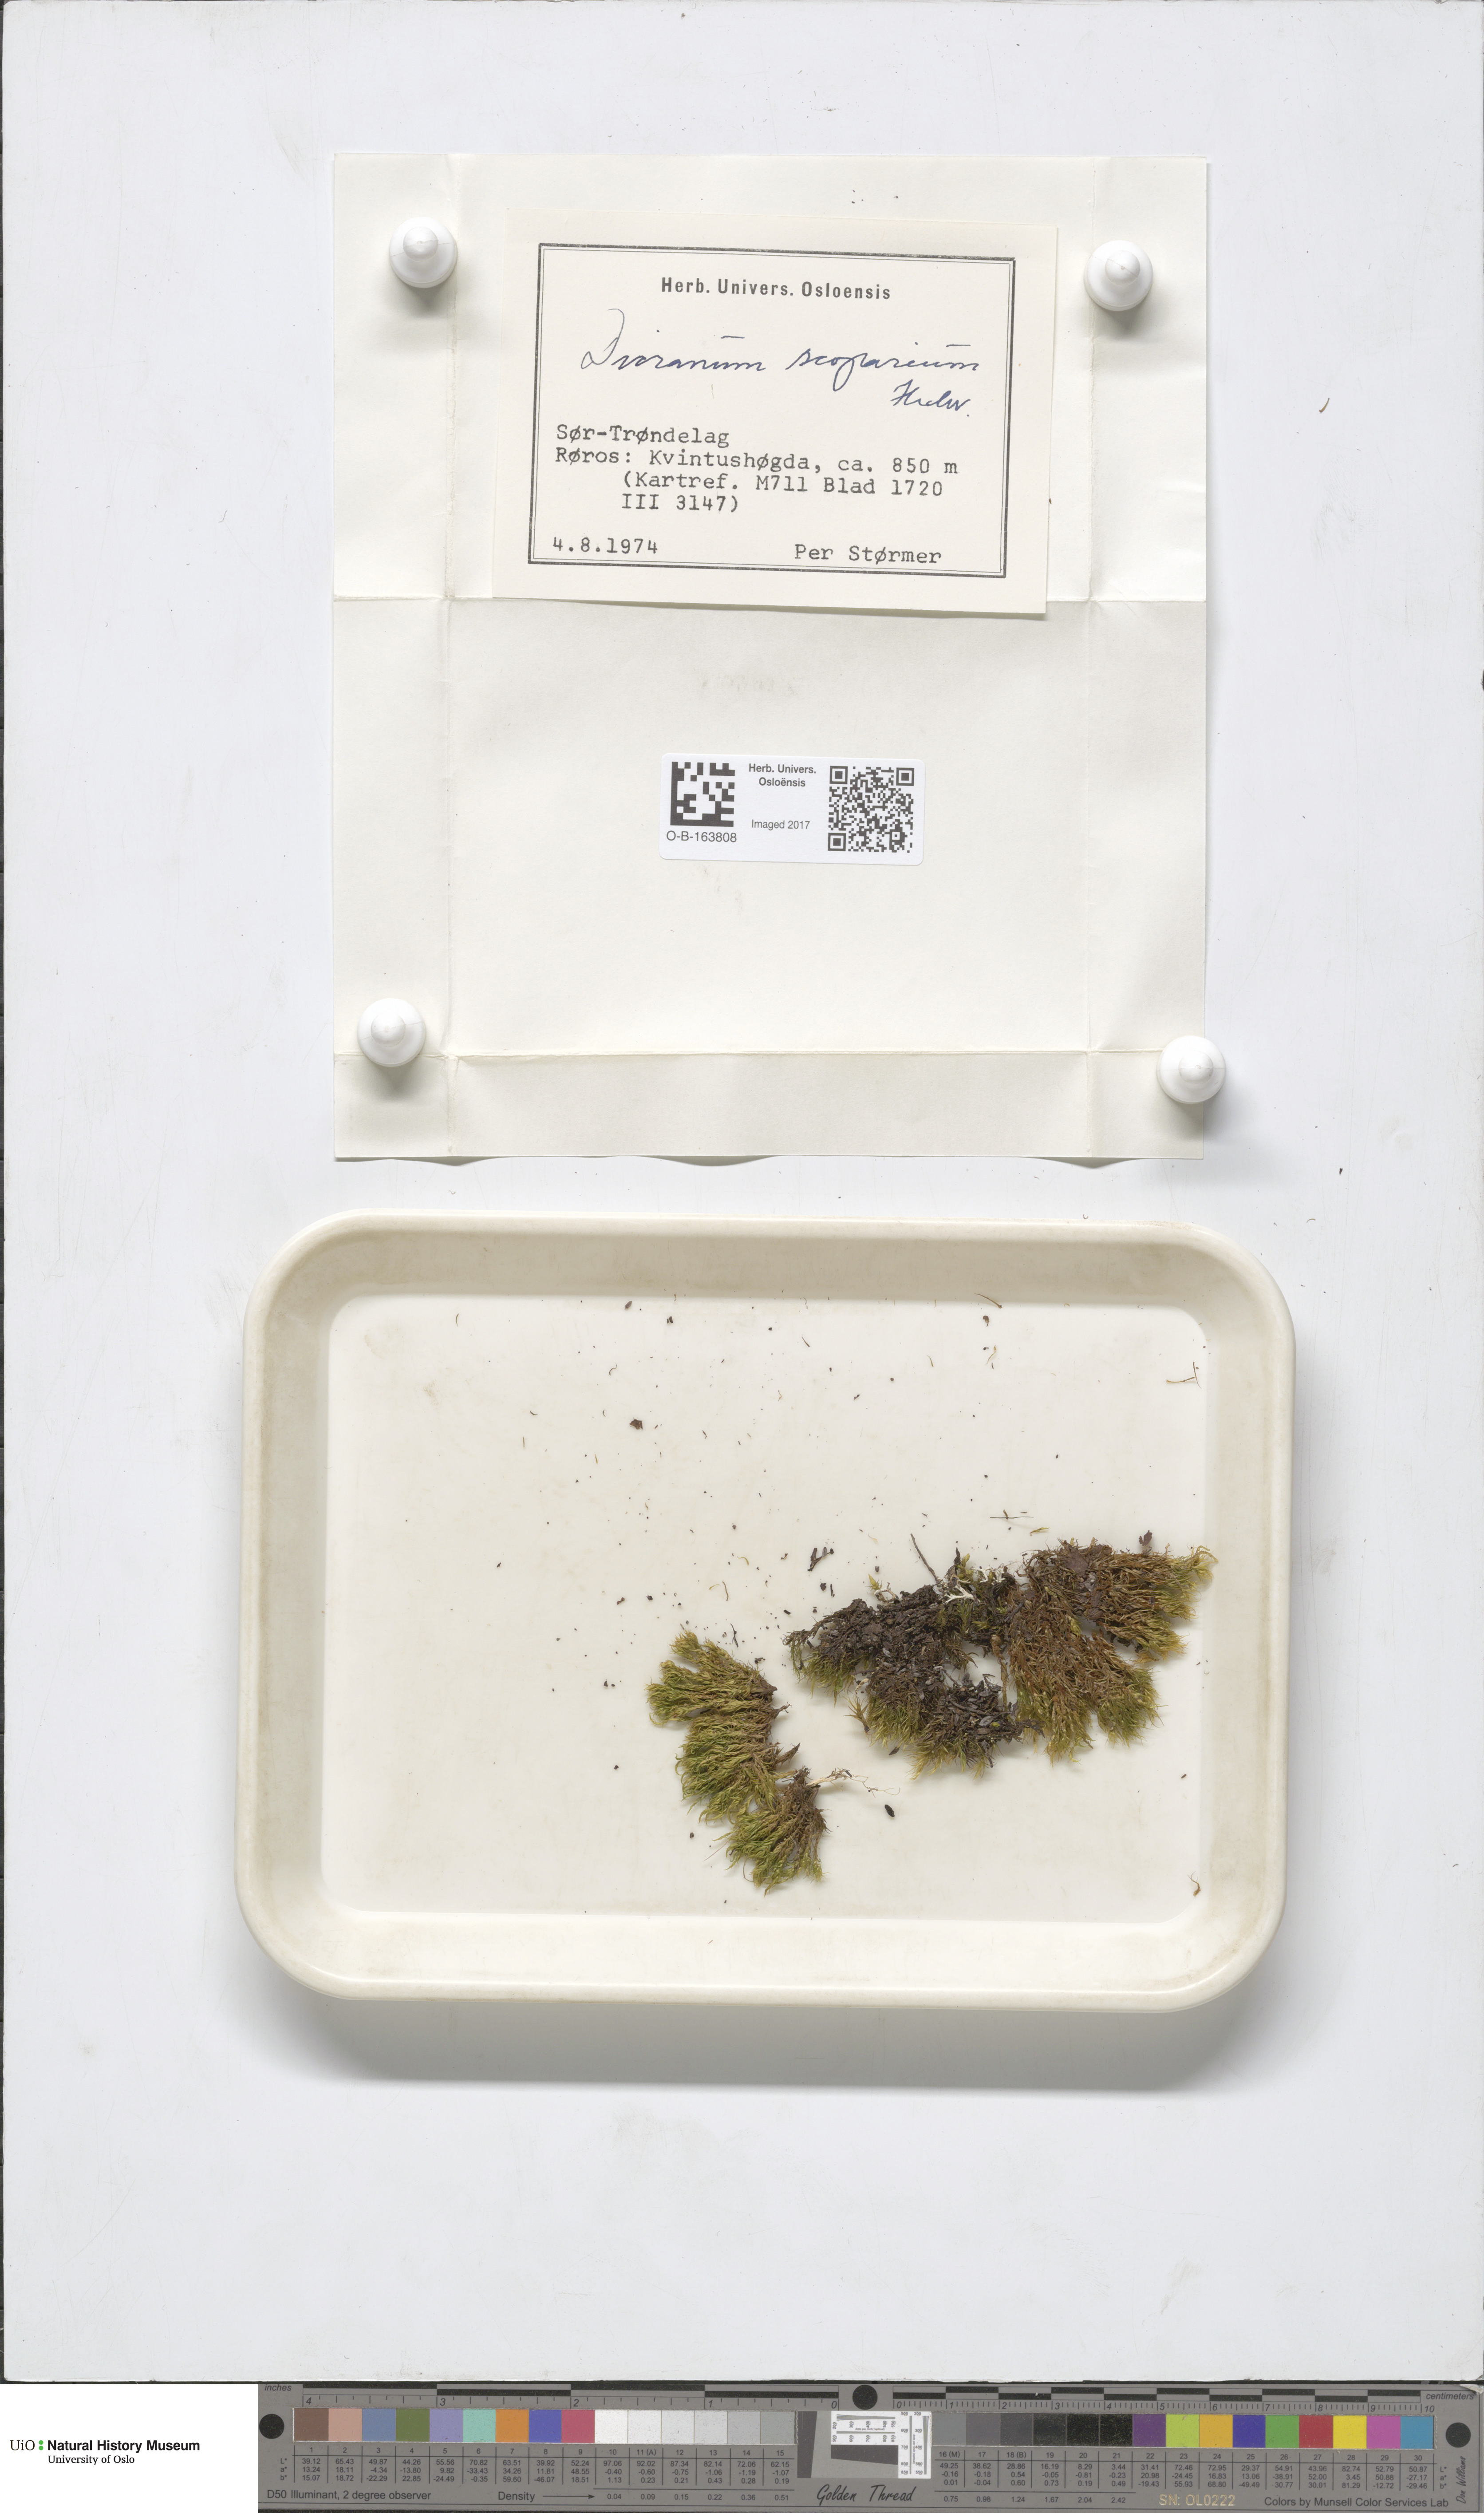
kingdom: Plantae
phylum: Bryophyta
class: Bryopsida
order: Dicranales
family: Dicranaceae
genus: Dicranum
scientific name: Dicranum scoparium
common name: Broom fork-moss
